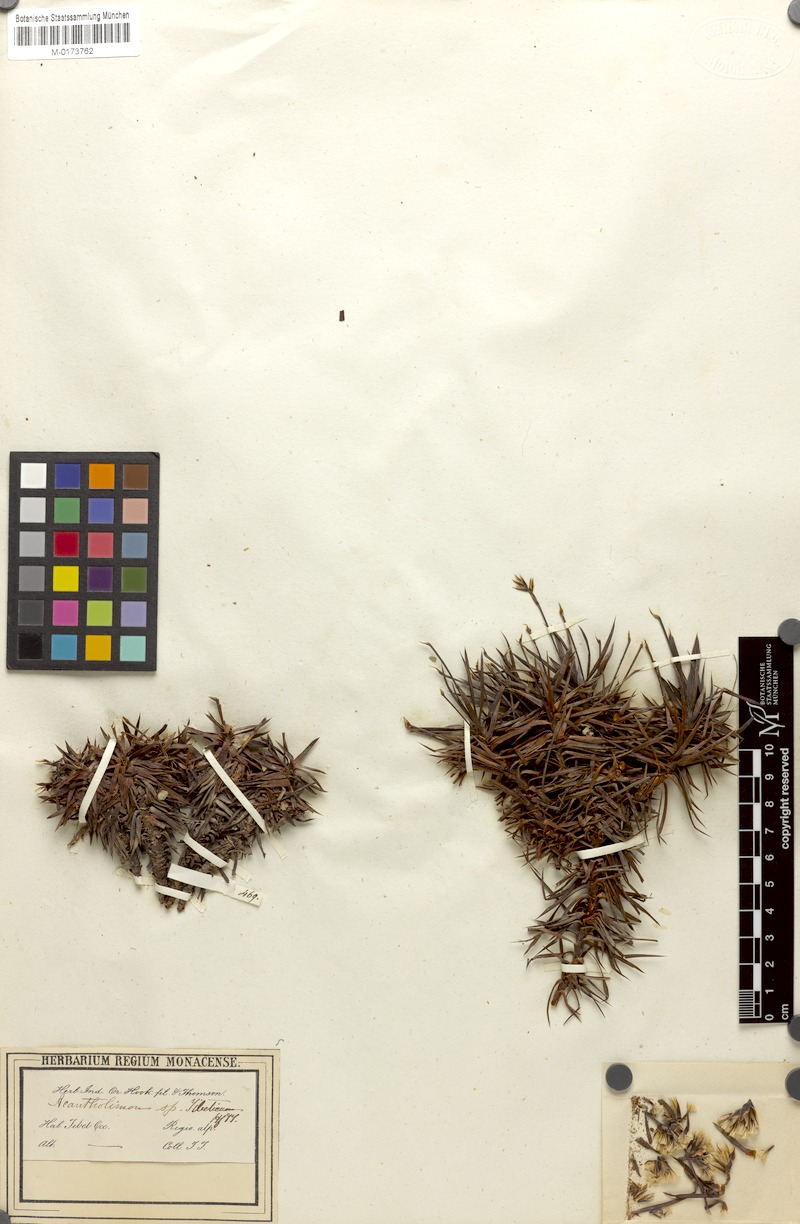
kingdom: Plantae
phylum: Tracheophyta
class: Magnoliopsida
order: Caryophyllales
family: Plumbaginaceae
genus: Acantholimon
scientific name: Acantholimon lycopodioides
